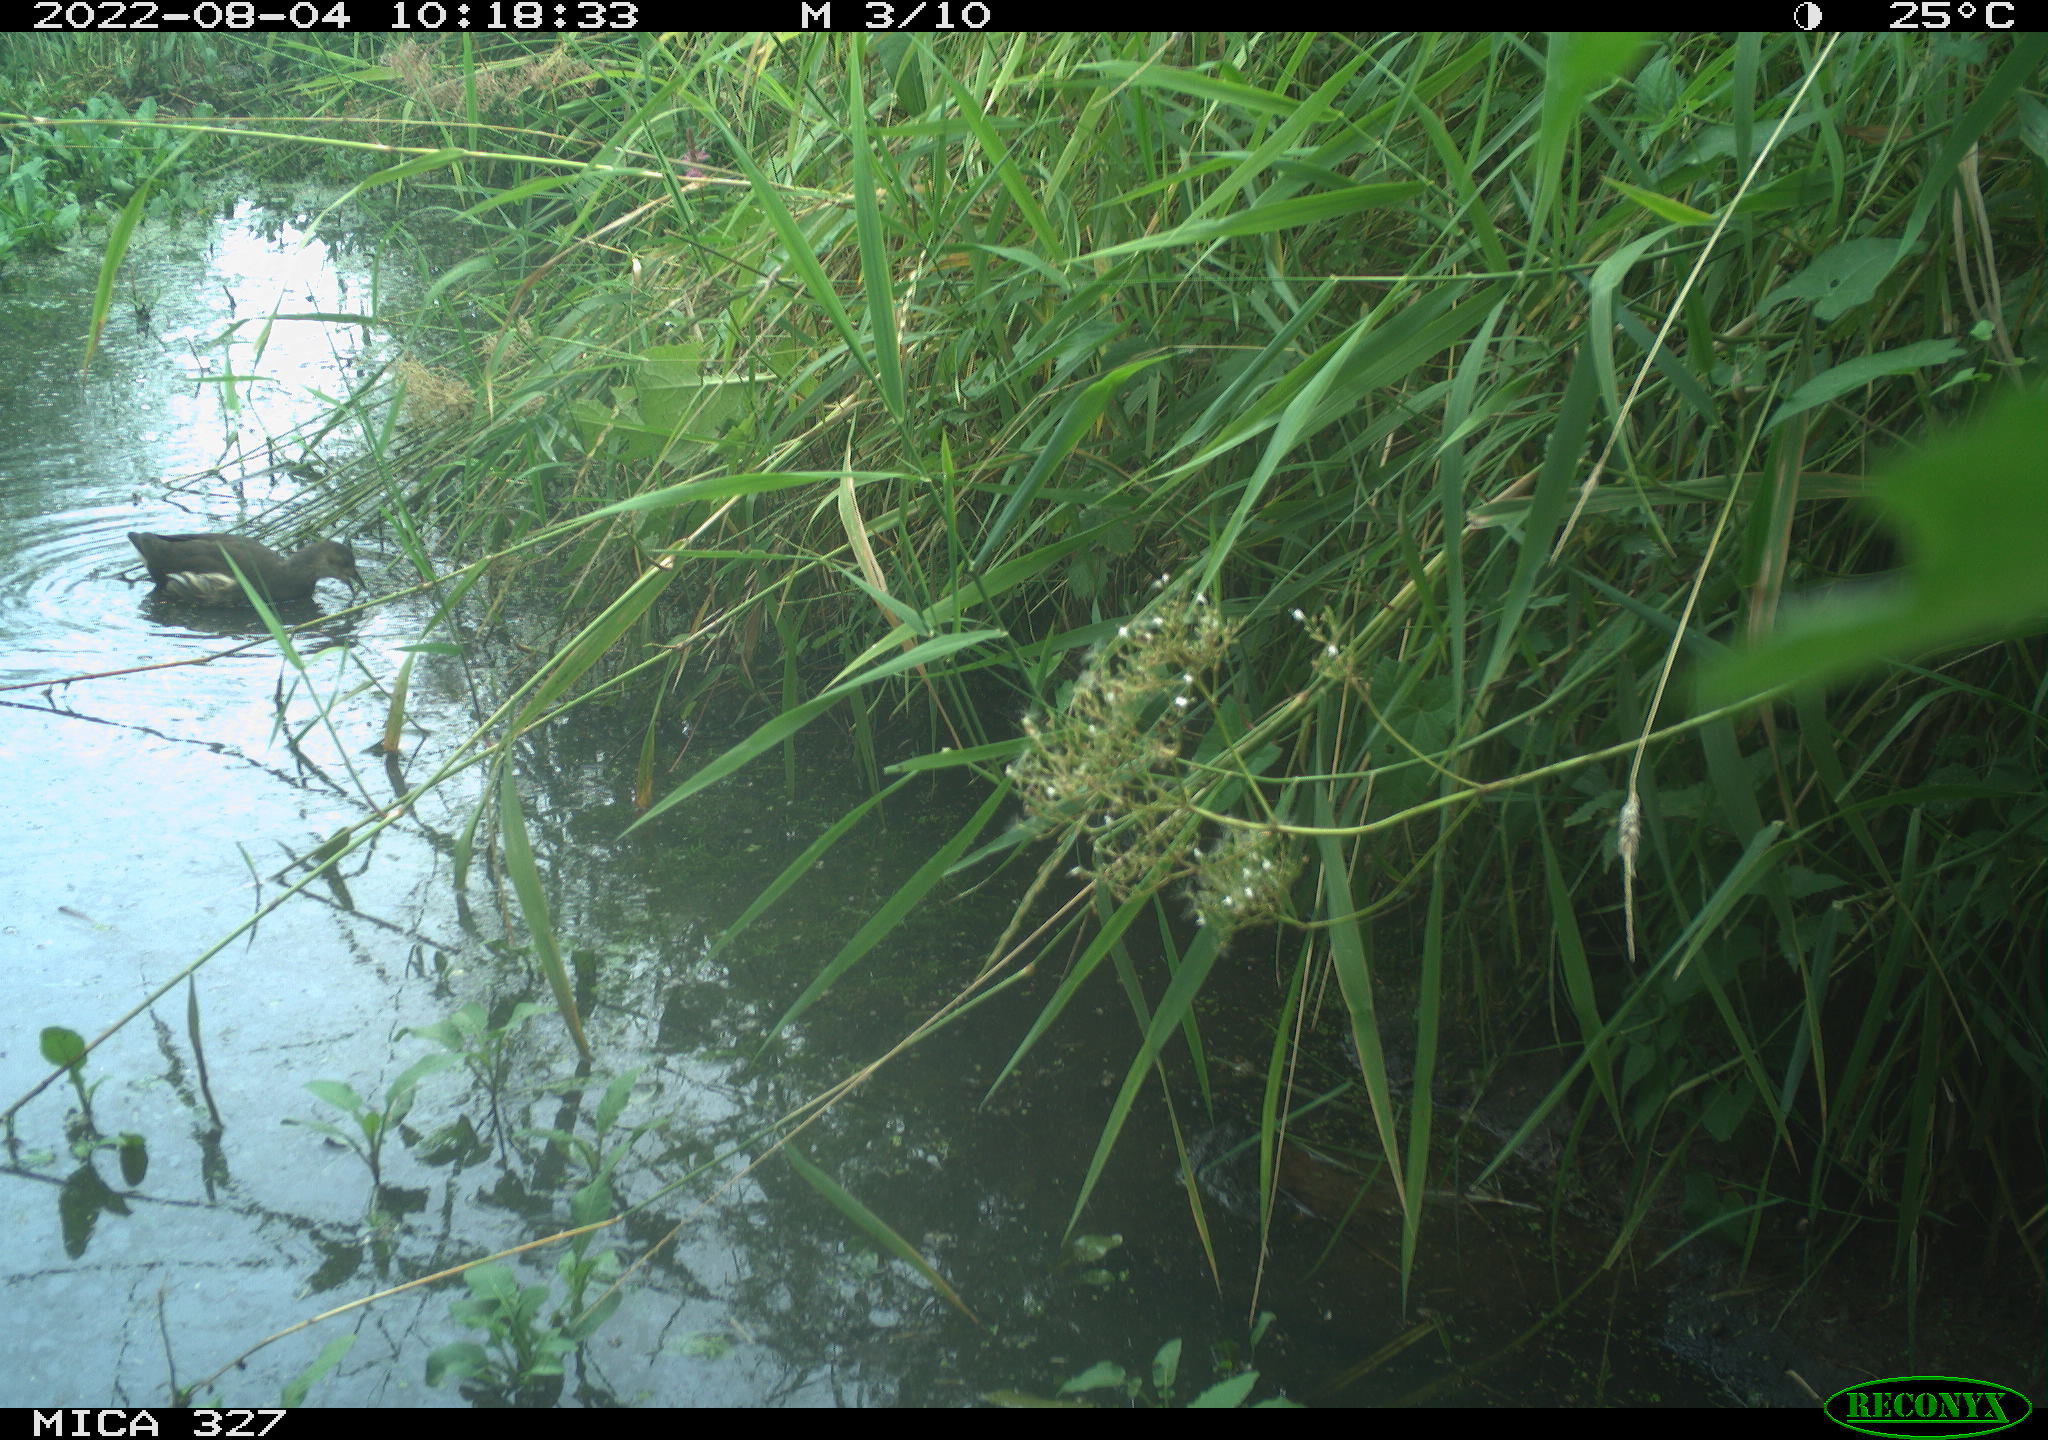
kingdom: Animalia
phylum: Chordata
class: Aves
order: Gruiformes
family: Rallidae
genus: Gallinula
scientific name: Gallinula chloropus
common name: Common moorhen
